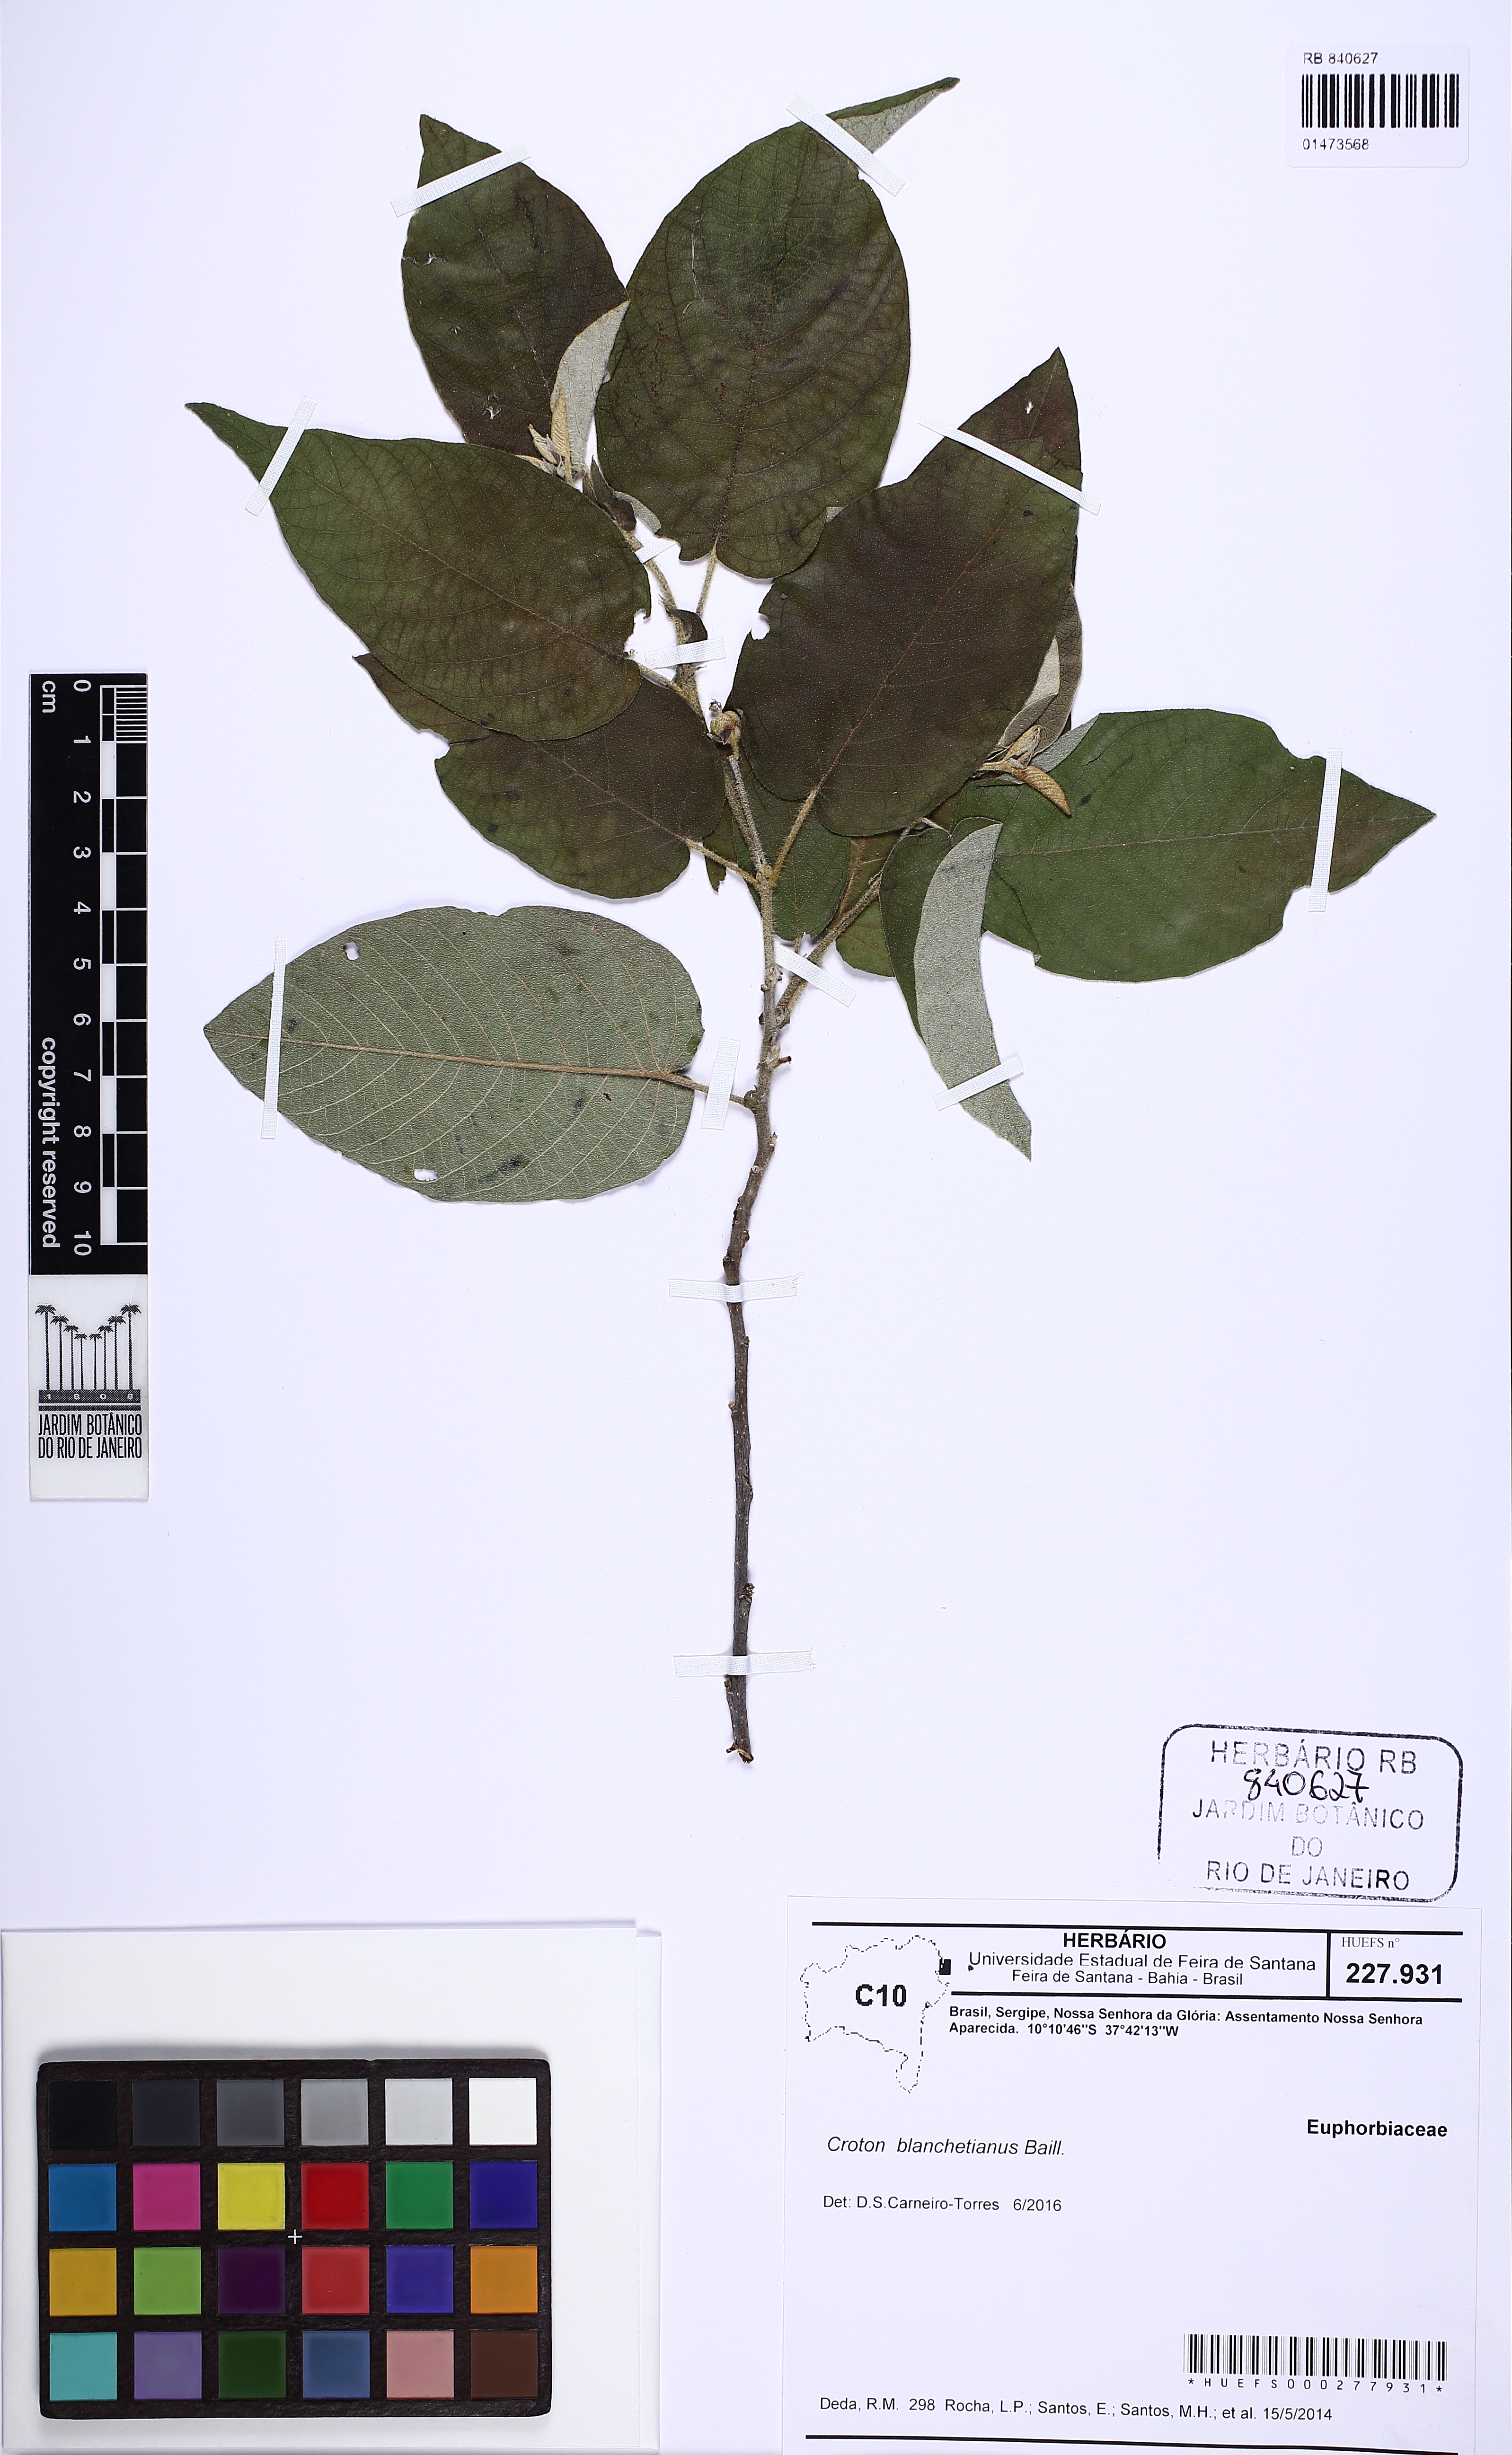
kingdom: Plantae
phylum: Tracheophyta
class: Magnoliopsida
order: Malpighiales
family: Euphorbiaceae
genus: Croton
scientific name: Croton blanchetianus
